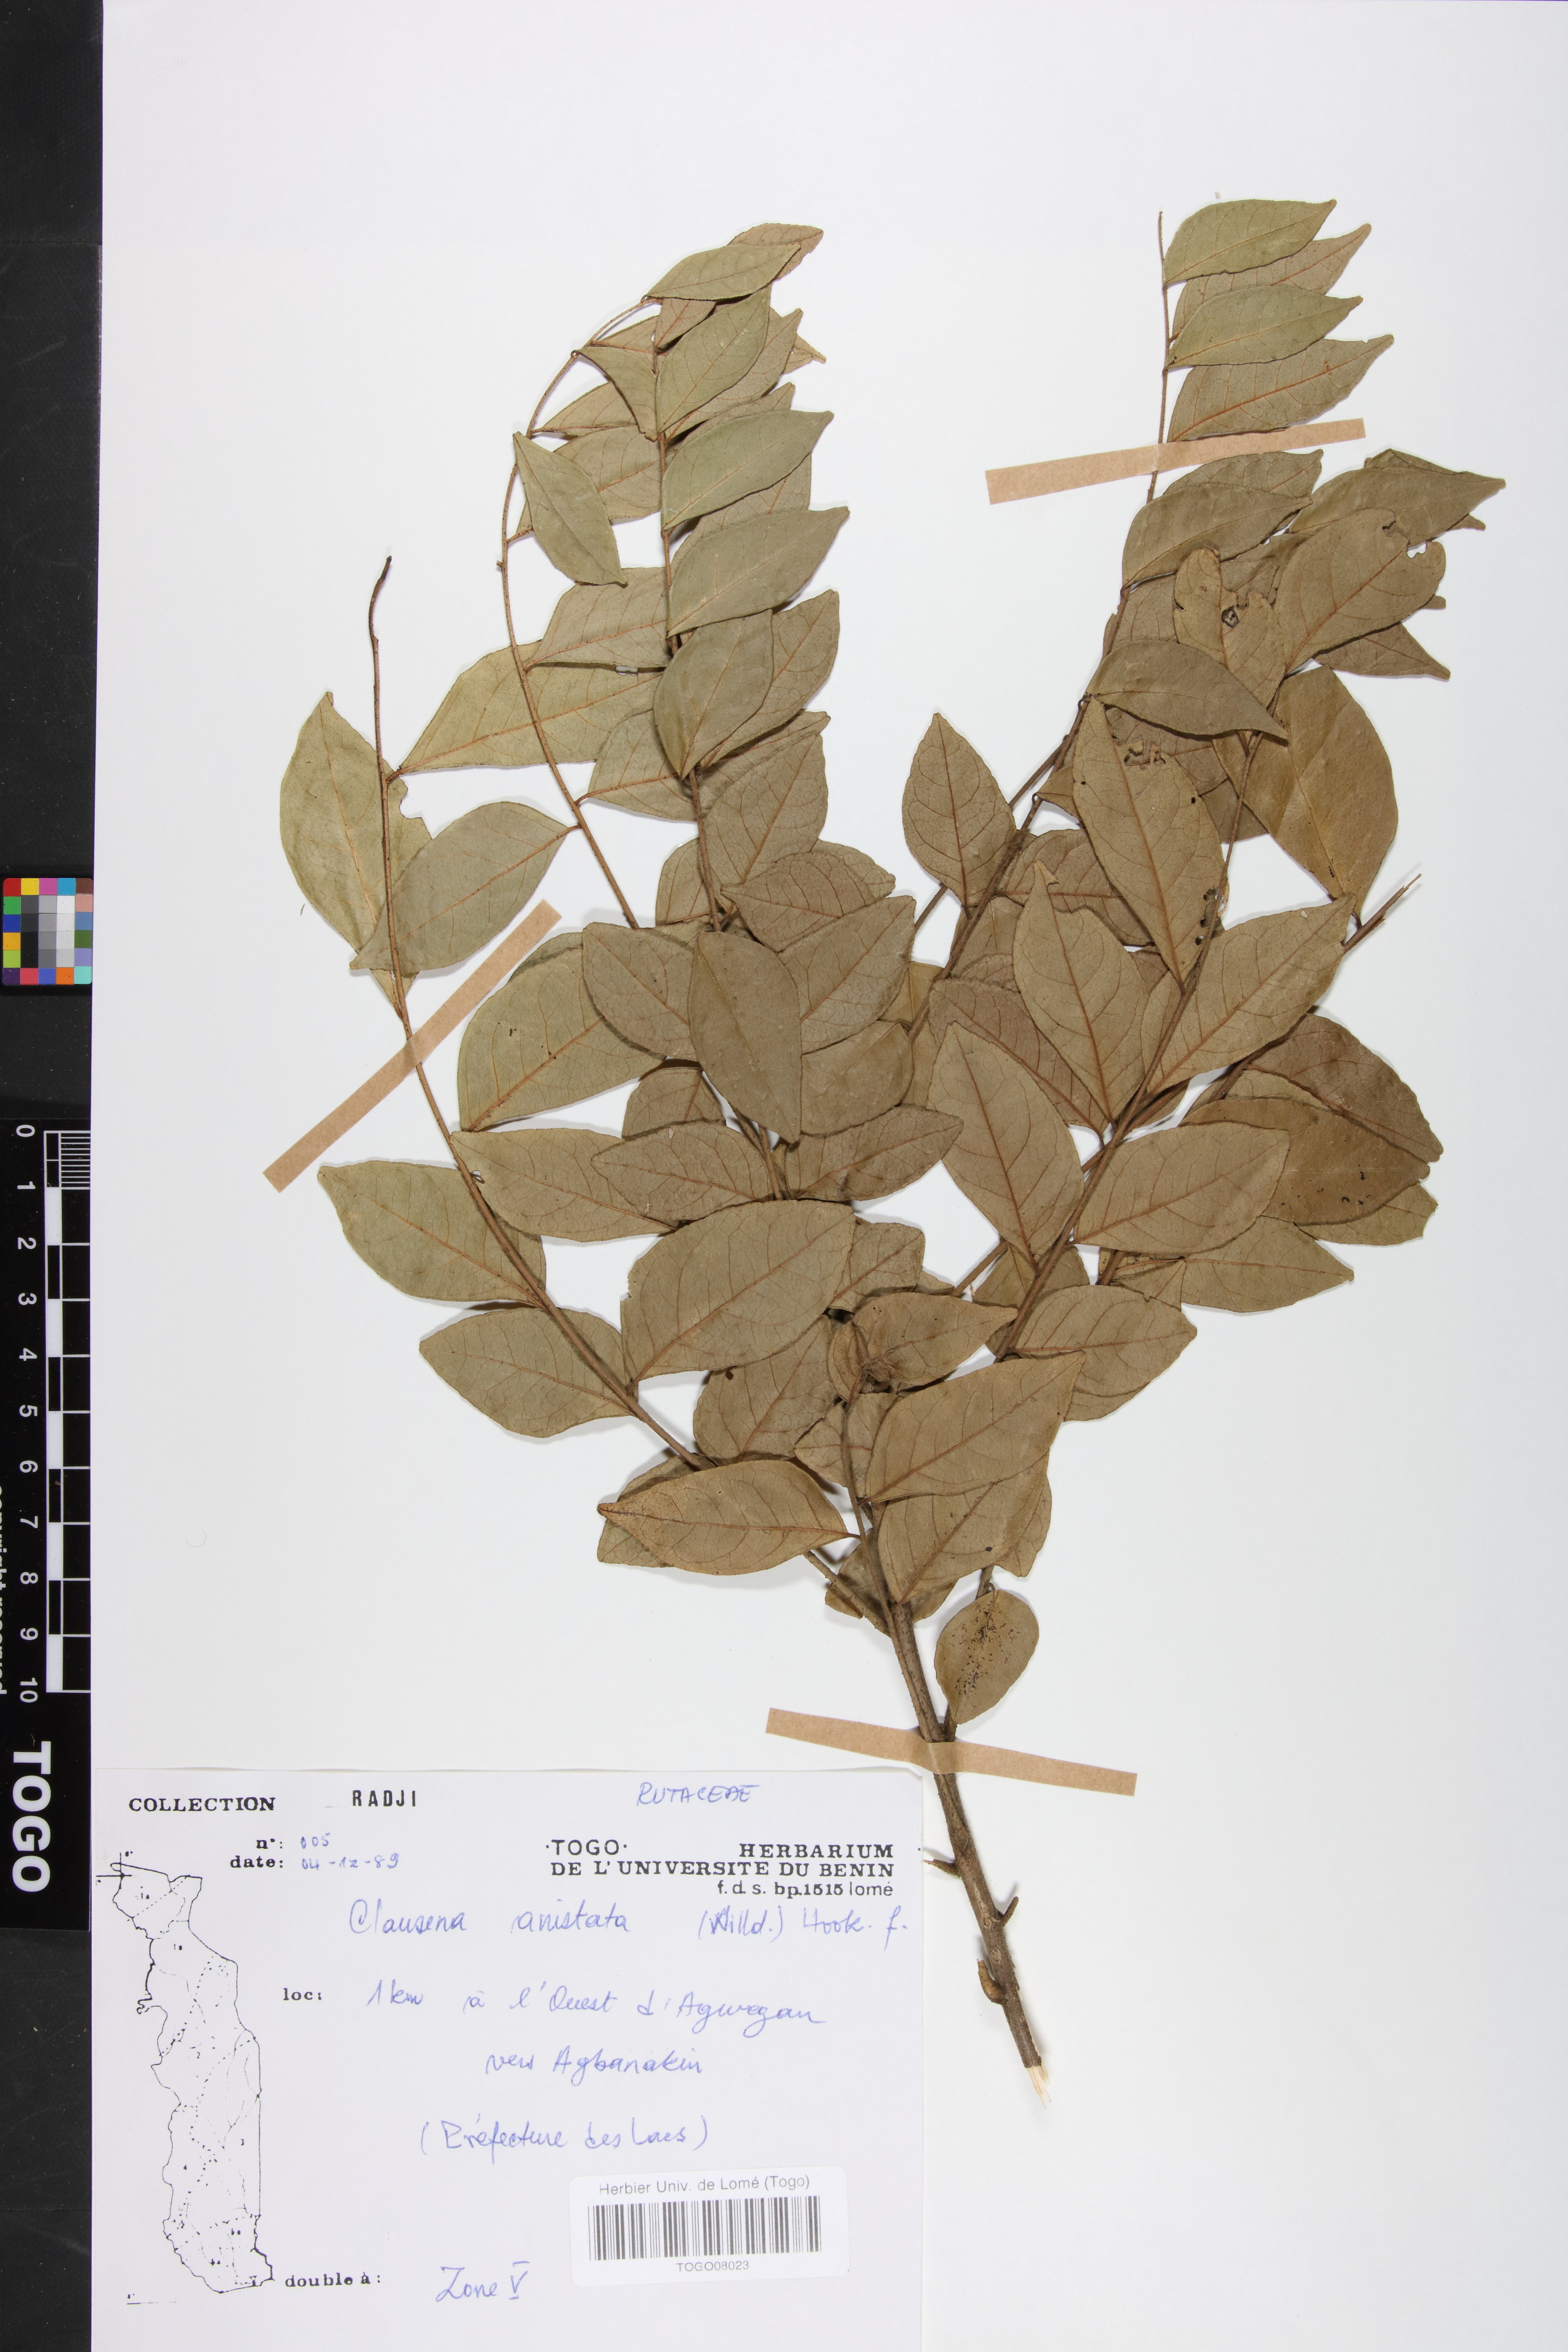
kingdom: Plantae
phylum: Tracheophyta
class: Magnoliopsida
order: Sapindales
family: Rutaceae
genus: Clausena
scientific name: Clausena anisata
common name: Horsewood
